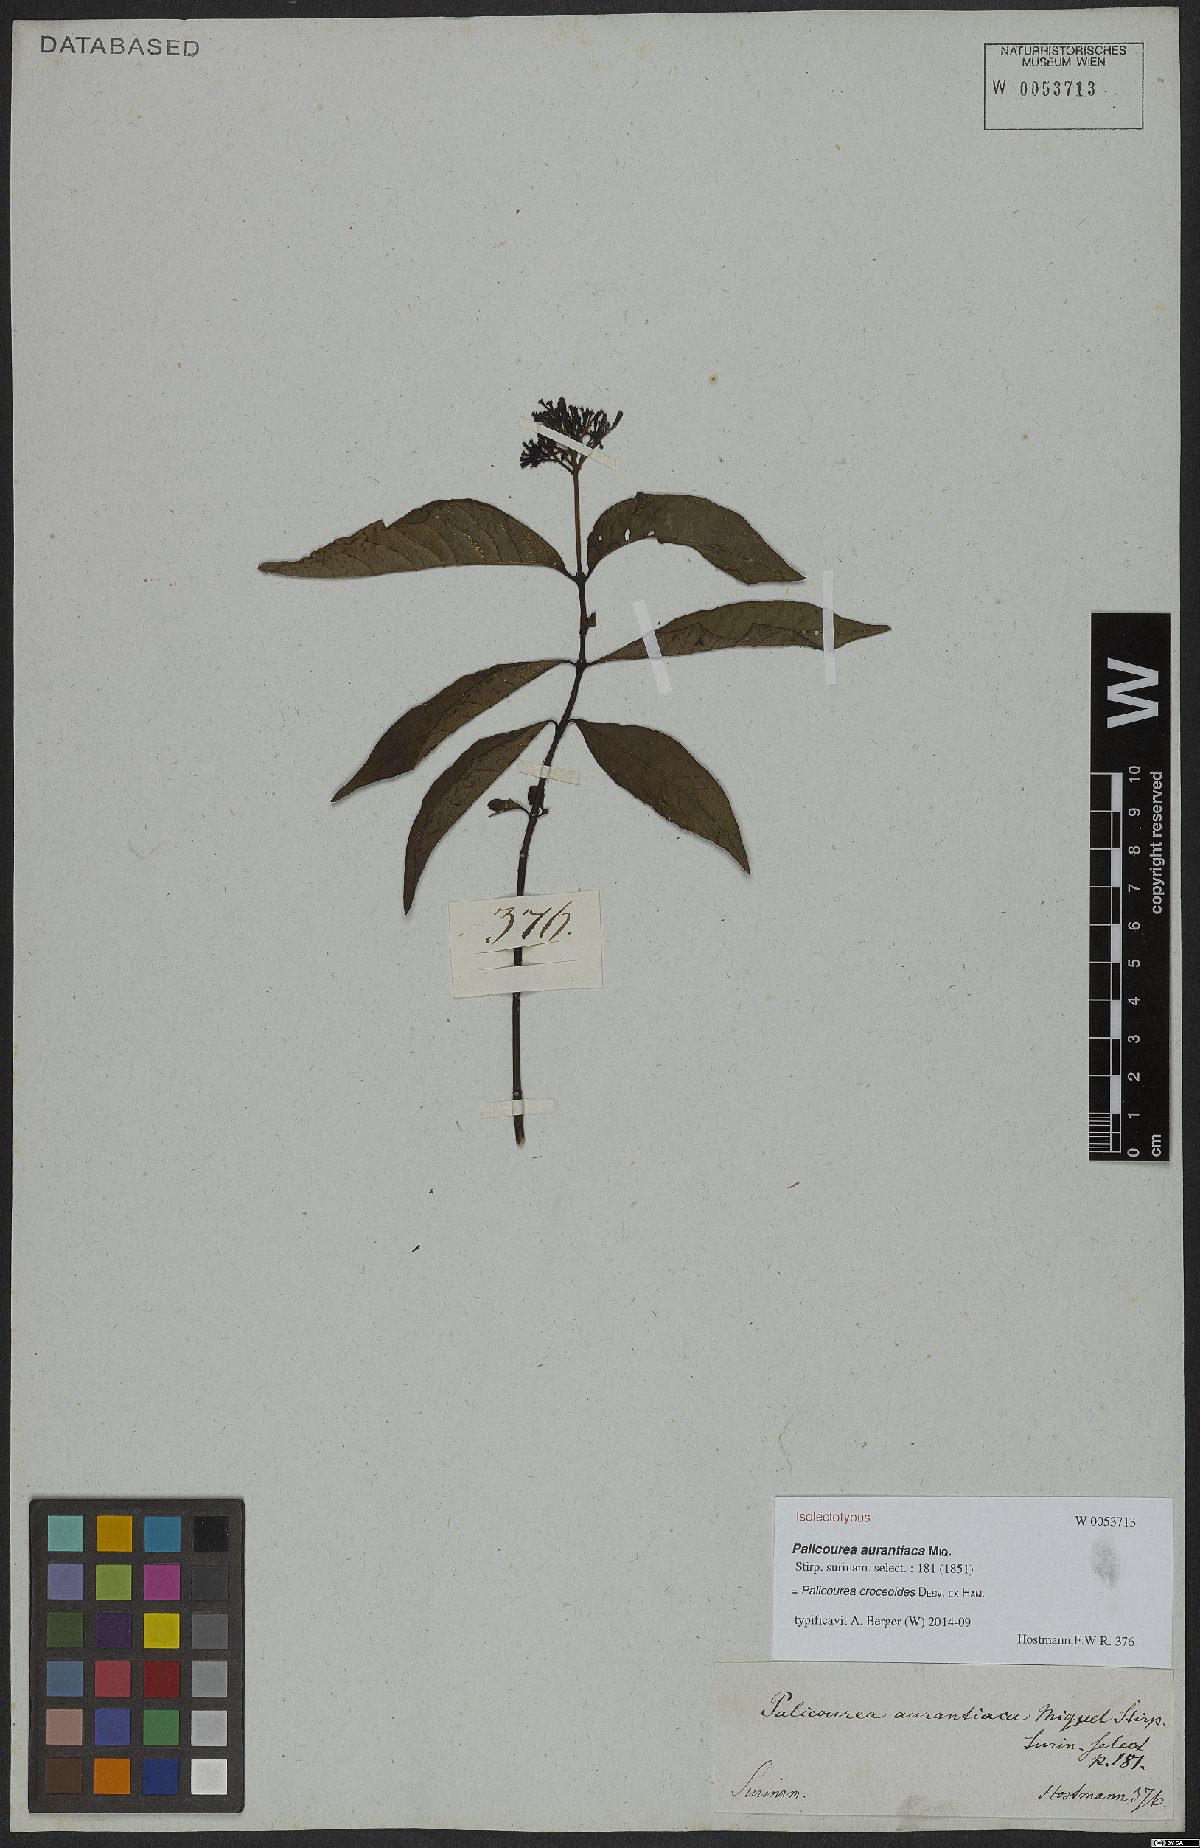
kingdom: Plantae
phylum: Tracheophyta
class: Magnoliopsida
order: Gentianales
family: Rubiaceae
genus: Palicourea
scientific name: Palicourea croceoides
